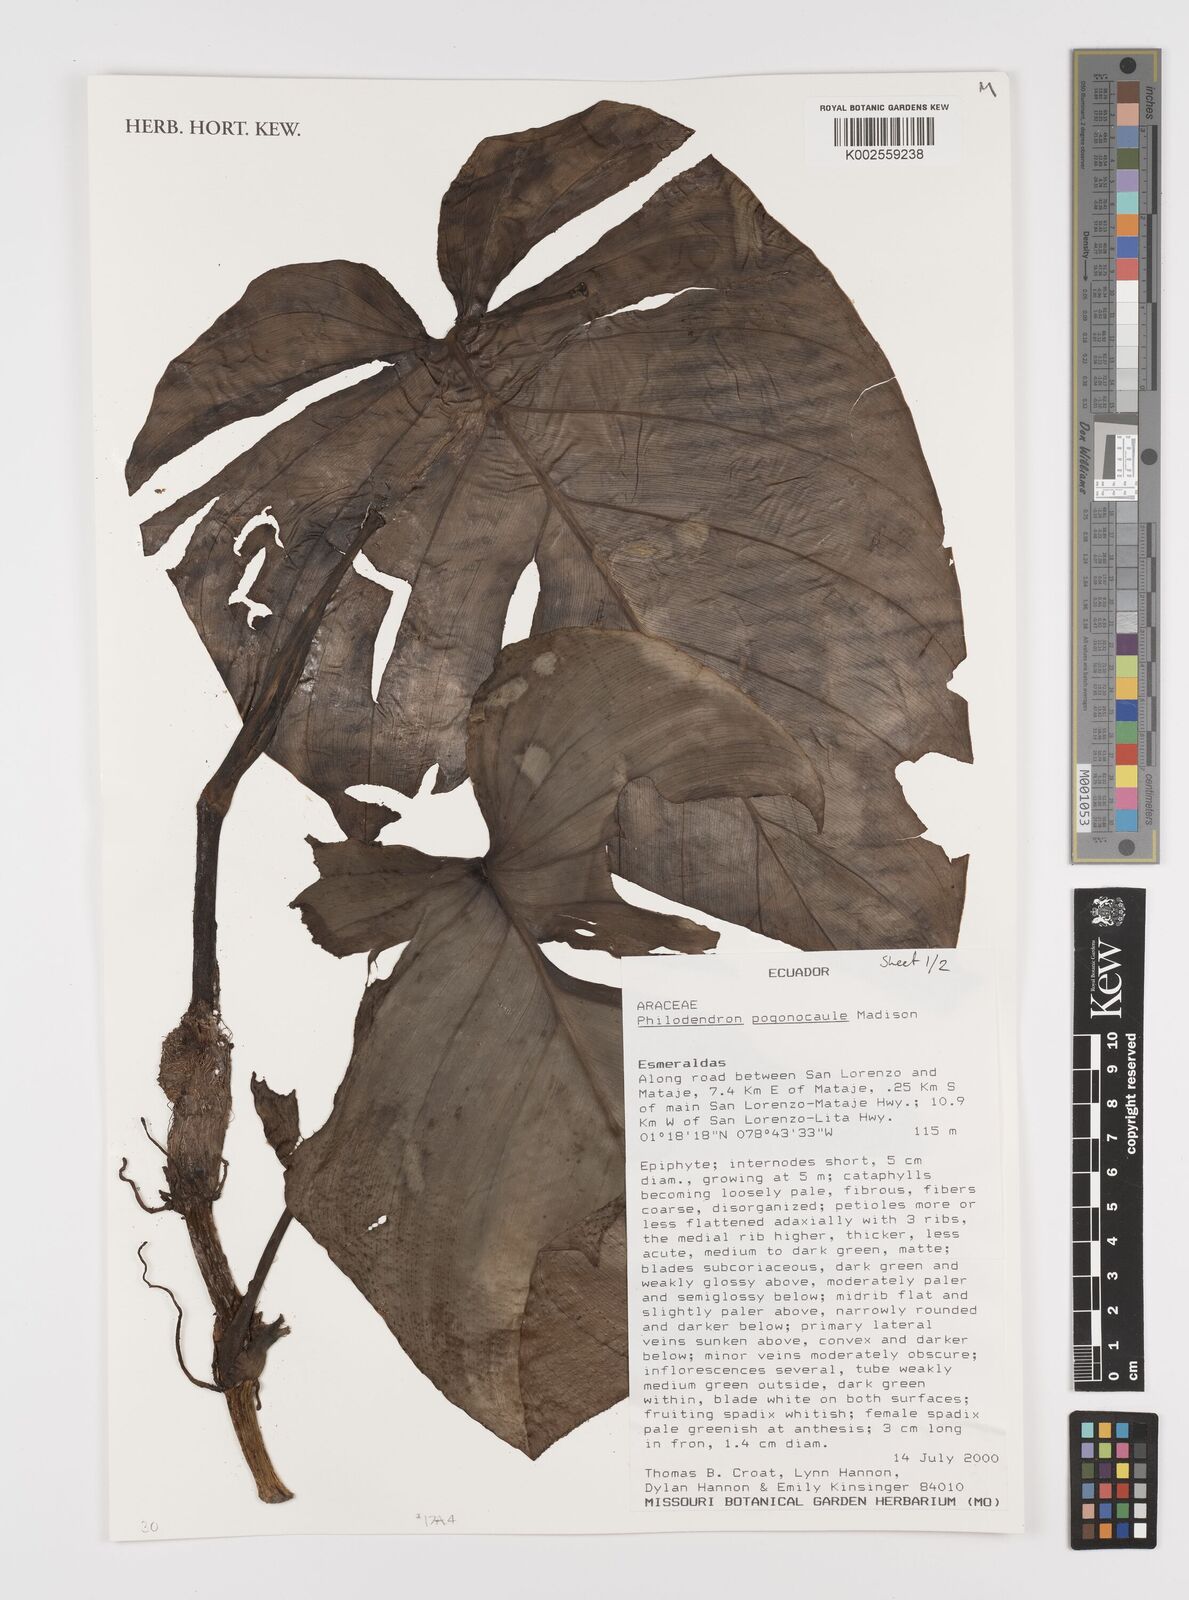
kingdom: Plantae
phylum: Tracheophyta
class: Liliopsida
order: Alismatales
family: Araceae
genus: Philodendron
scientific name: Philodendron pogonocaule
